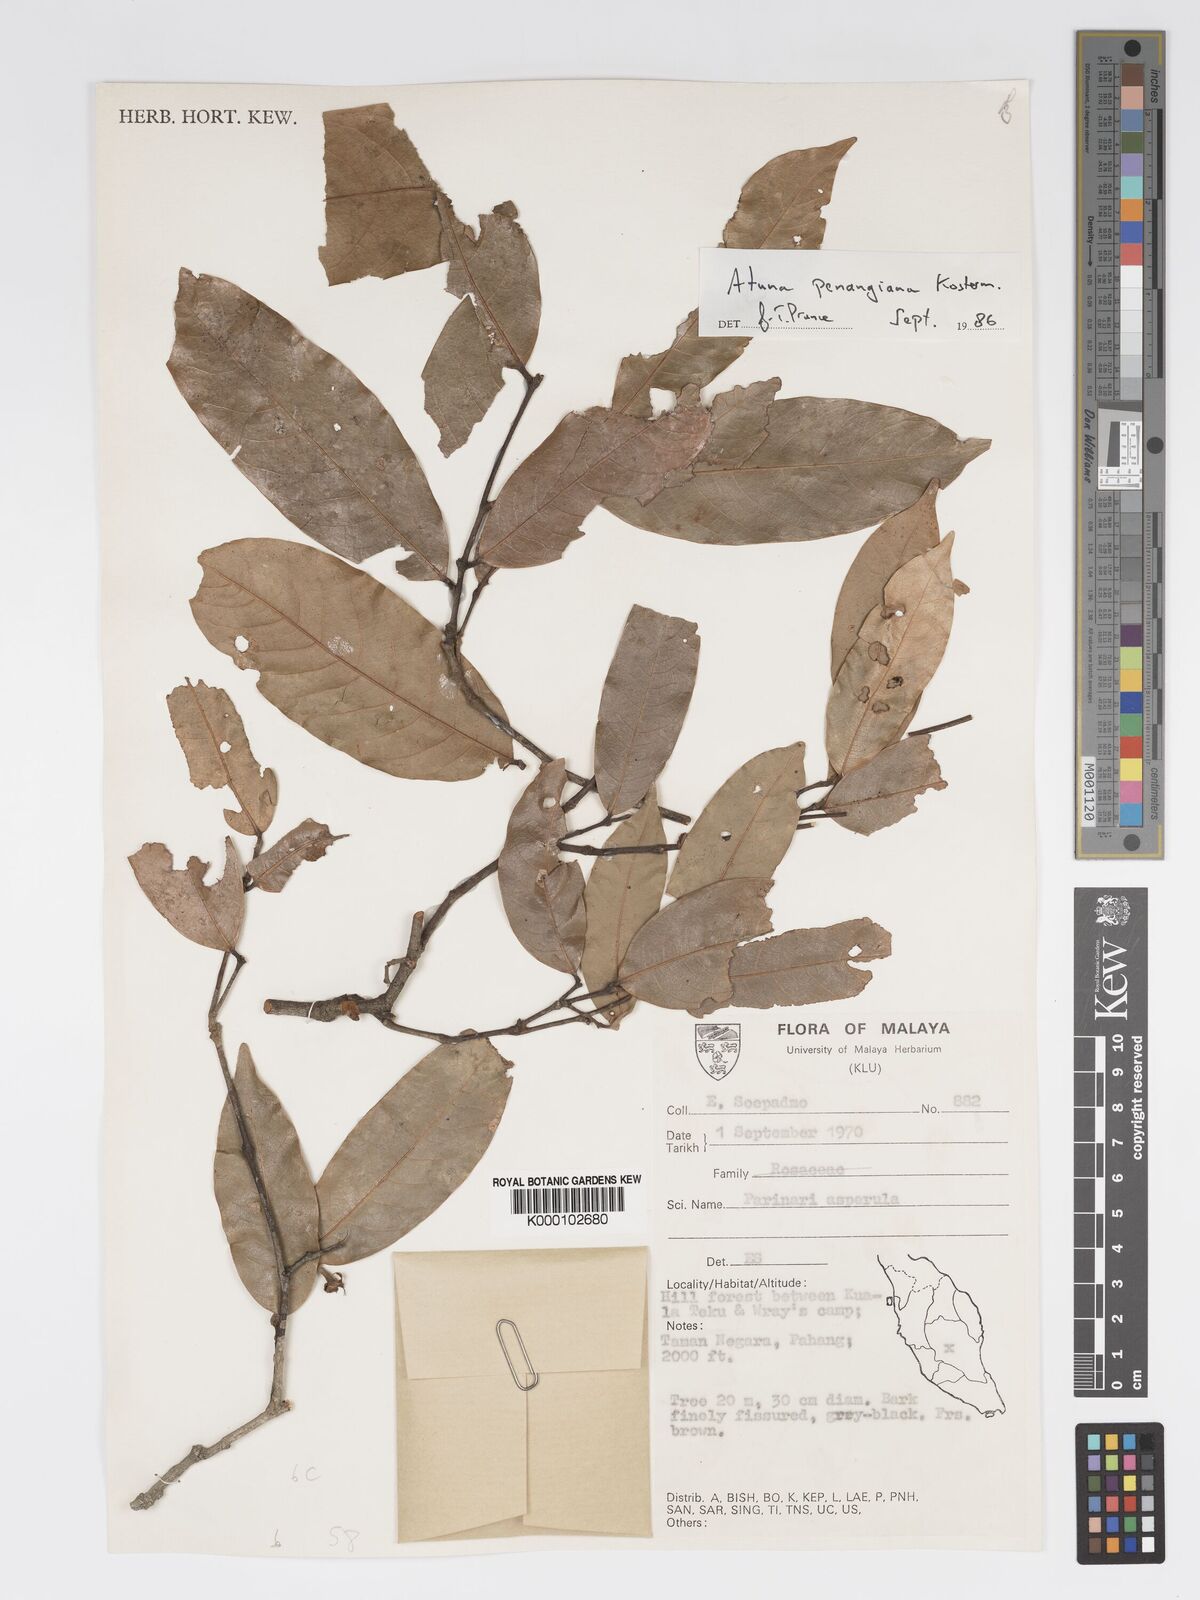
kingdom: Plantae
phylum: Tracheophyta
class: Magnoliopsida
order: Malpighiales
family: Chrysobalanaceae
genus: Atuna
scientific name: Atuna penangiana
